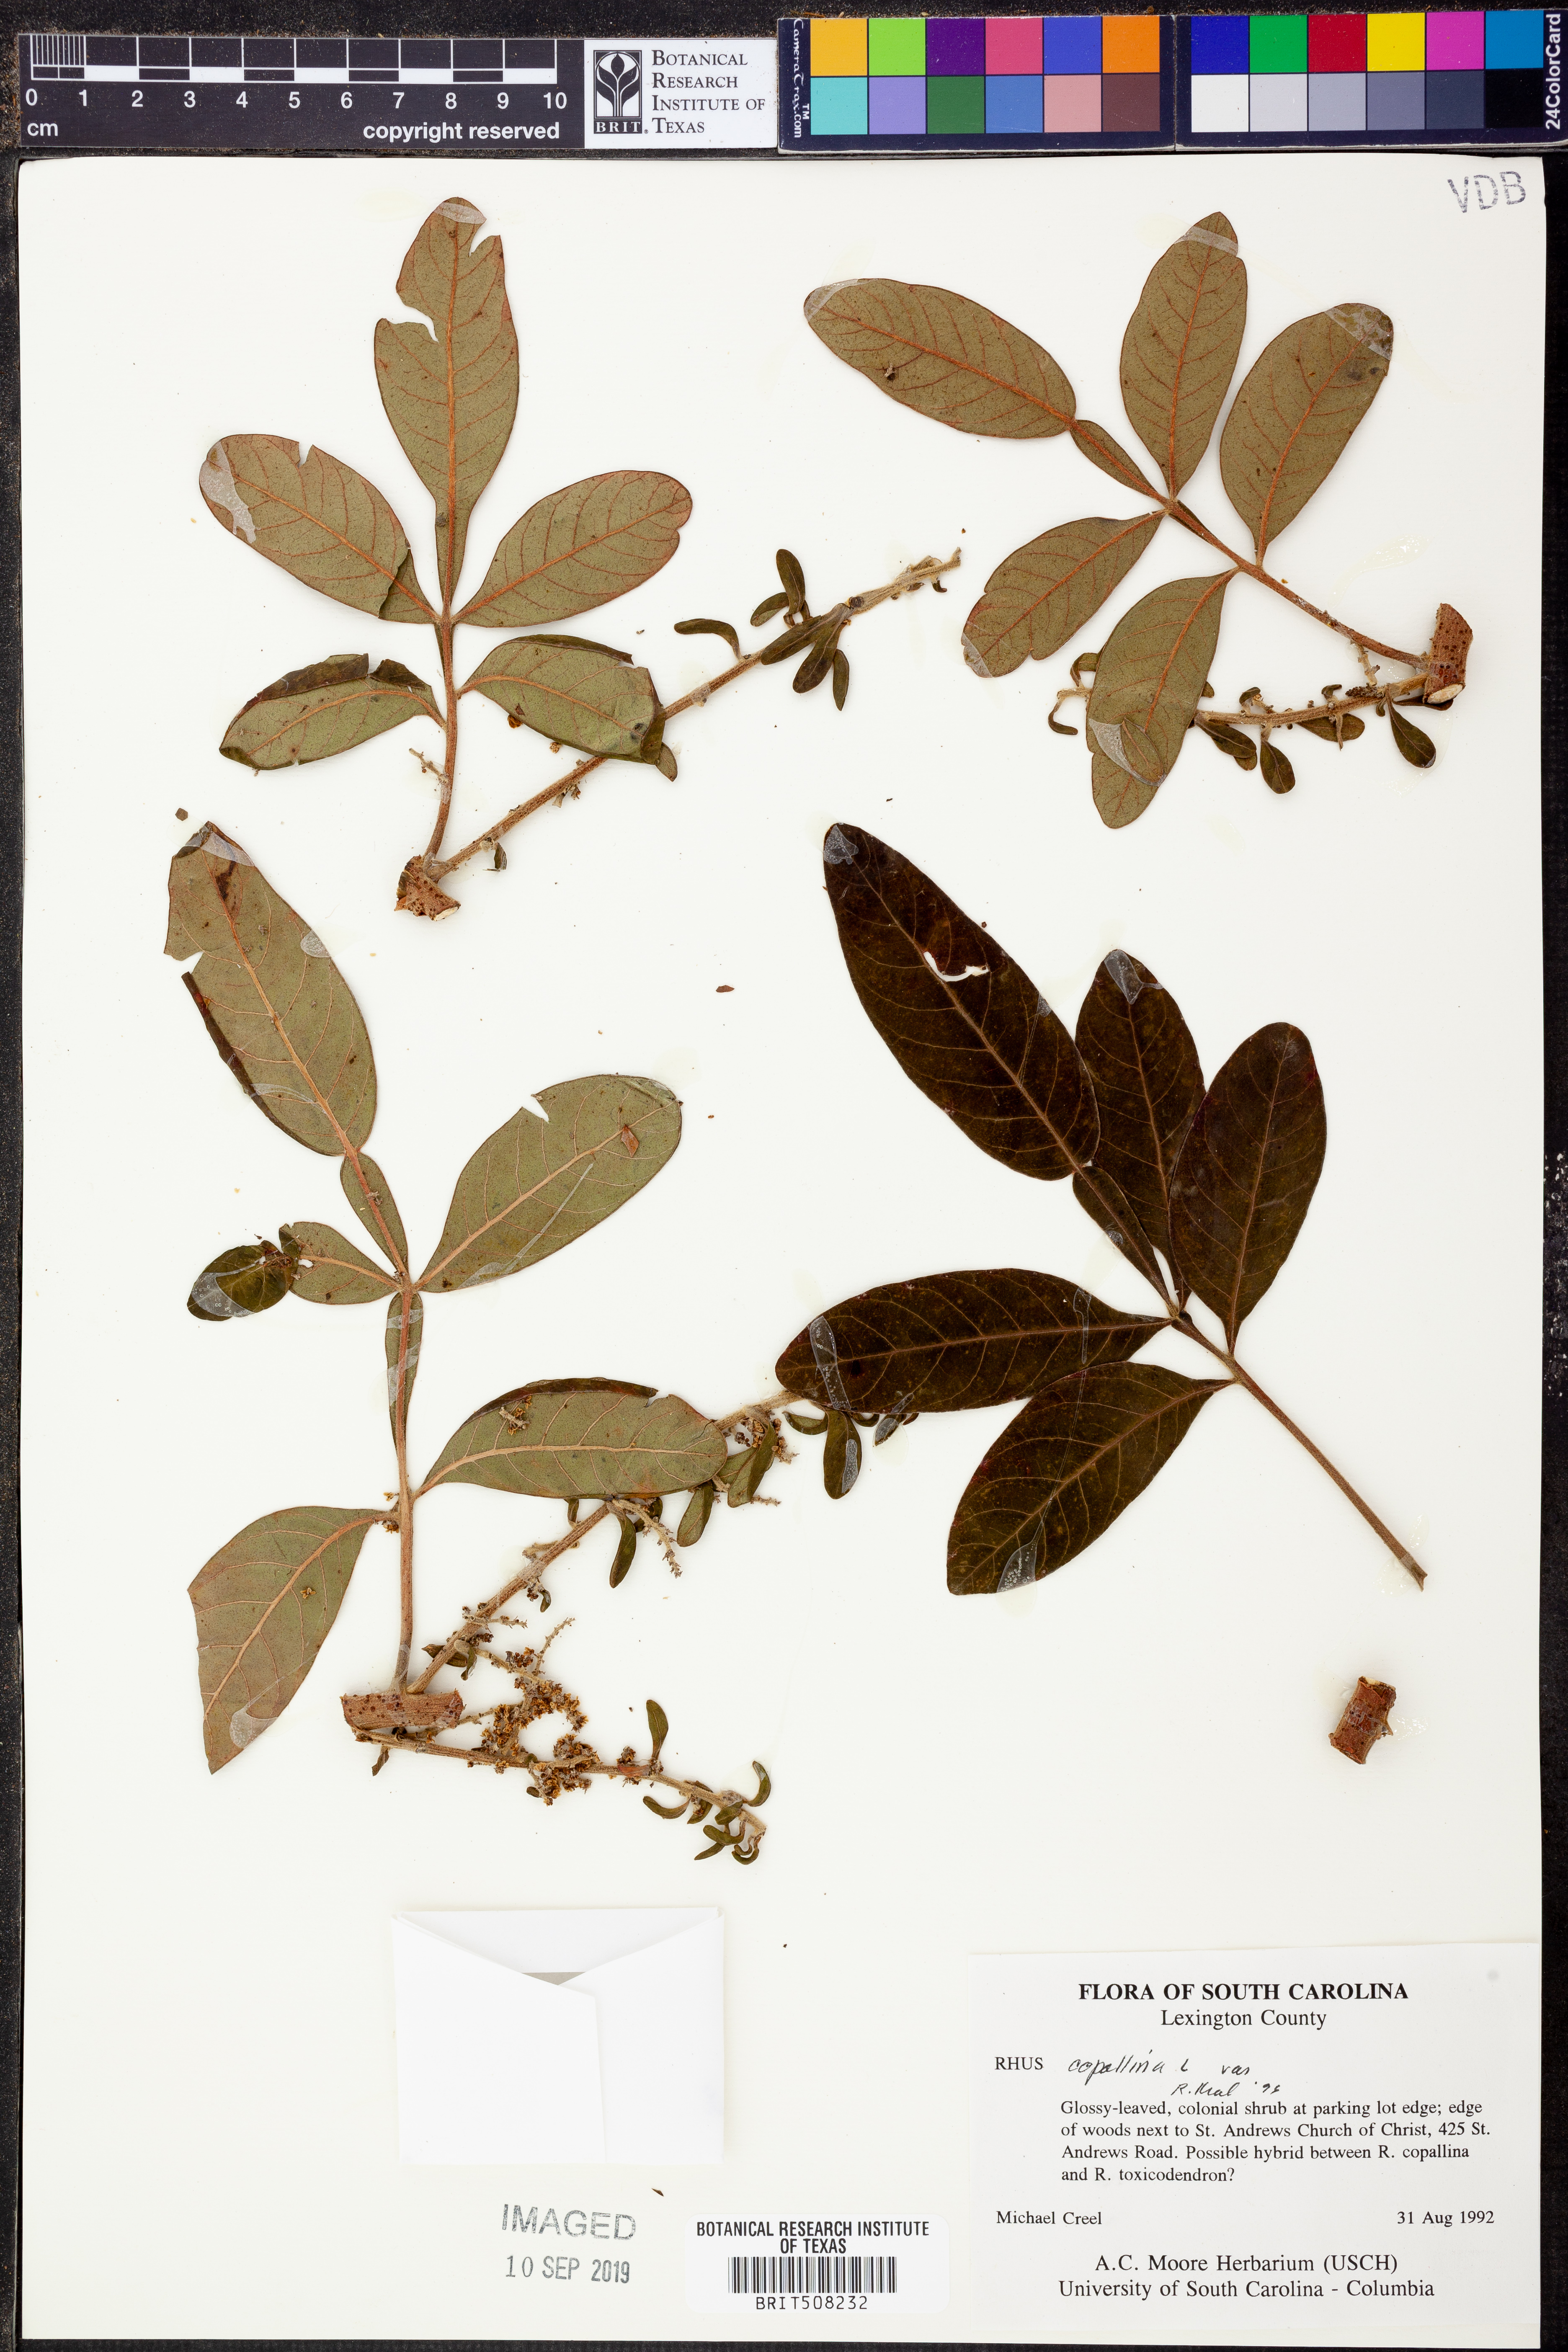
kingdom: Plantae
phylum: Tracheophyta
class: Magnoliopsida
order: Sapindales
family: Anacardiaceae
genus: Rhus
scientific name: Rhus copallina
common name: Shining sumac
